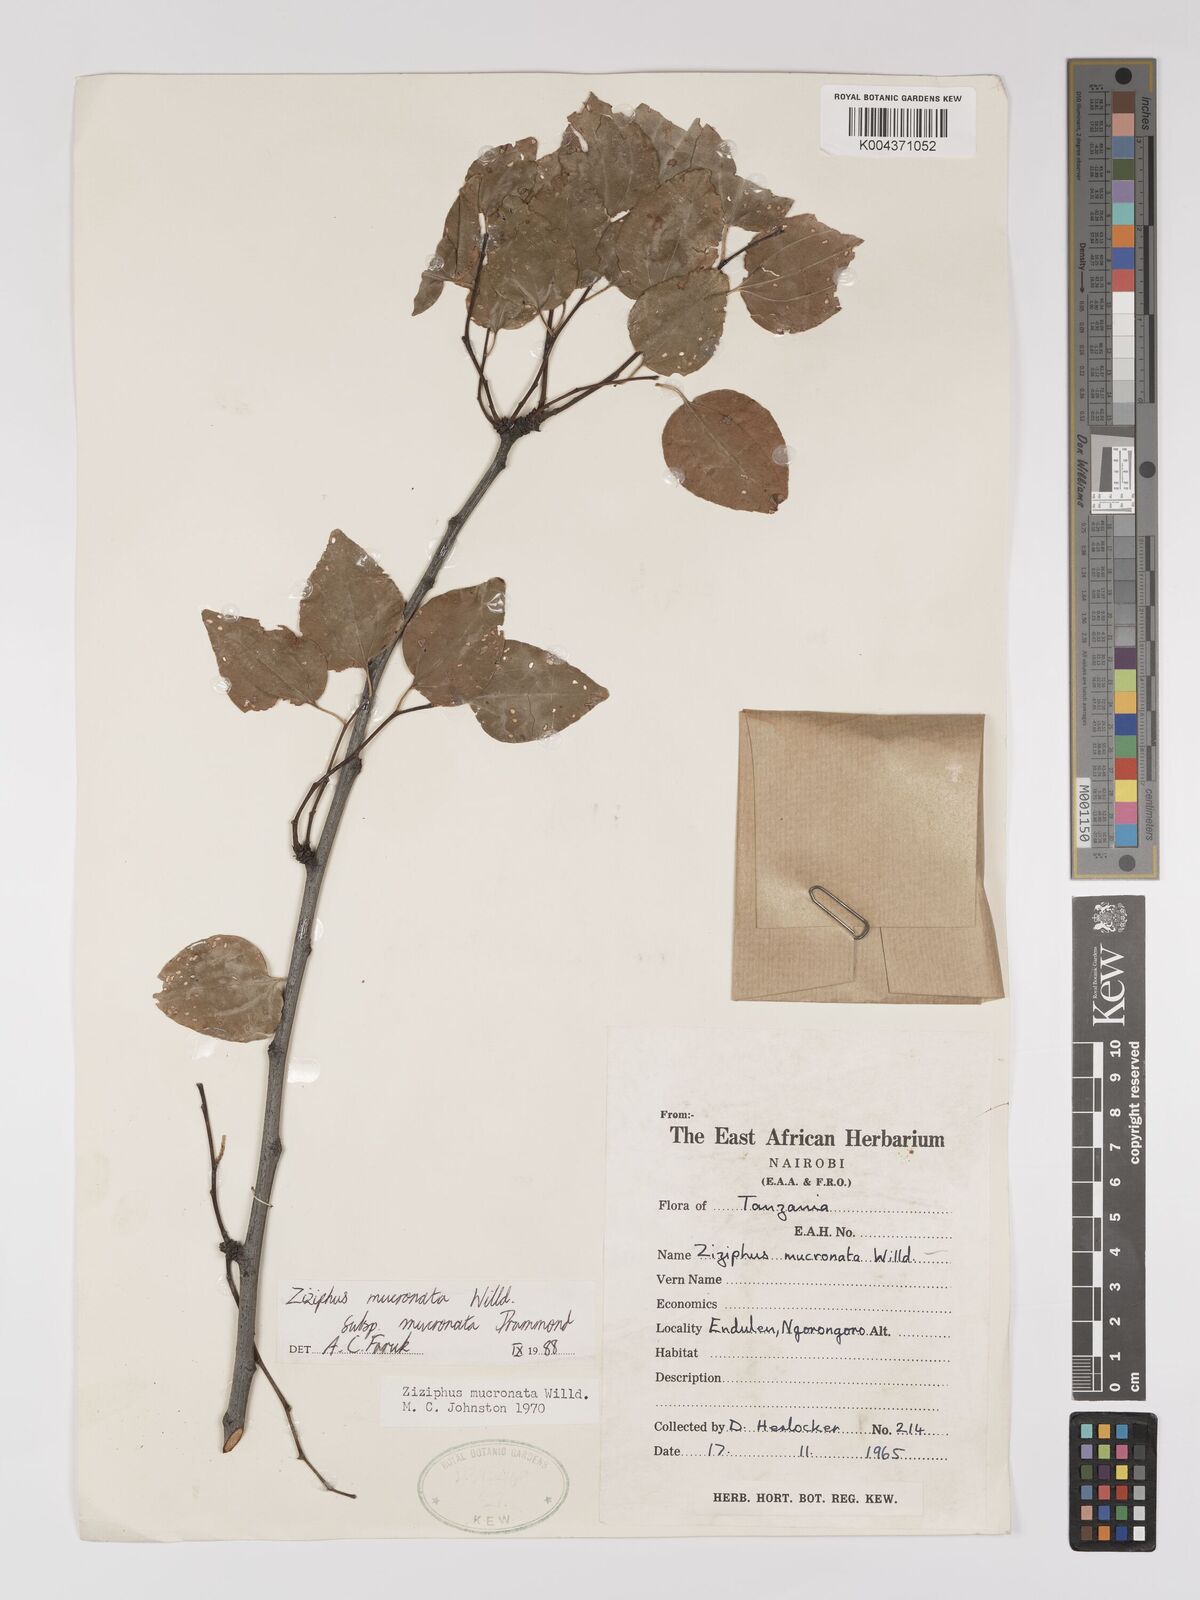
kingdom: Plantae
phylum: Tracheophyta
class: Magnoliopsida
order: Rosales
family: Rhamnaceae
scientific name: Rhamnaceae
